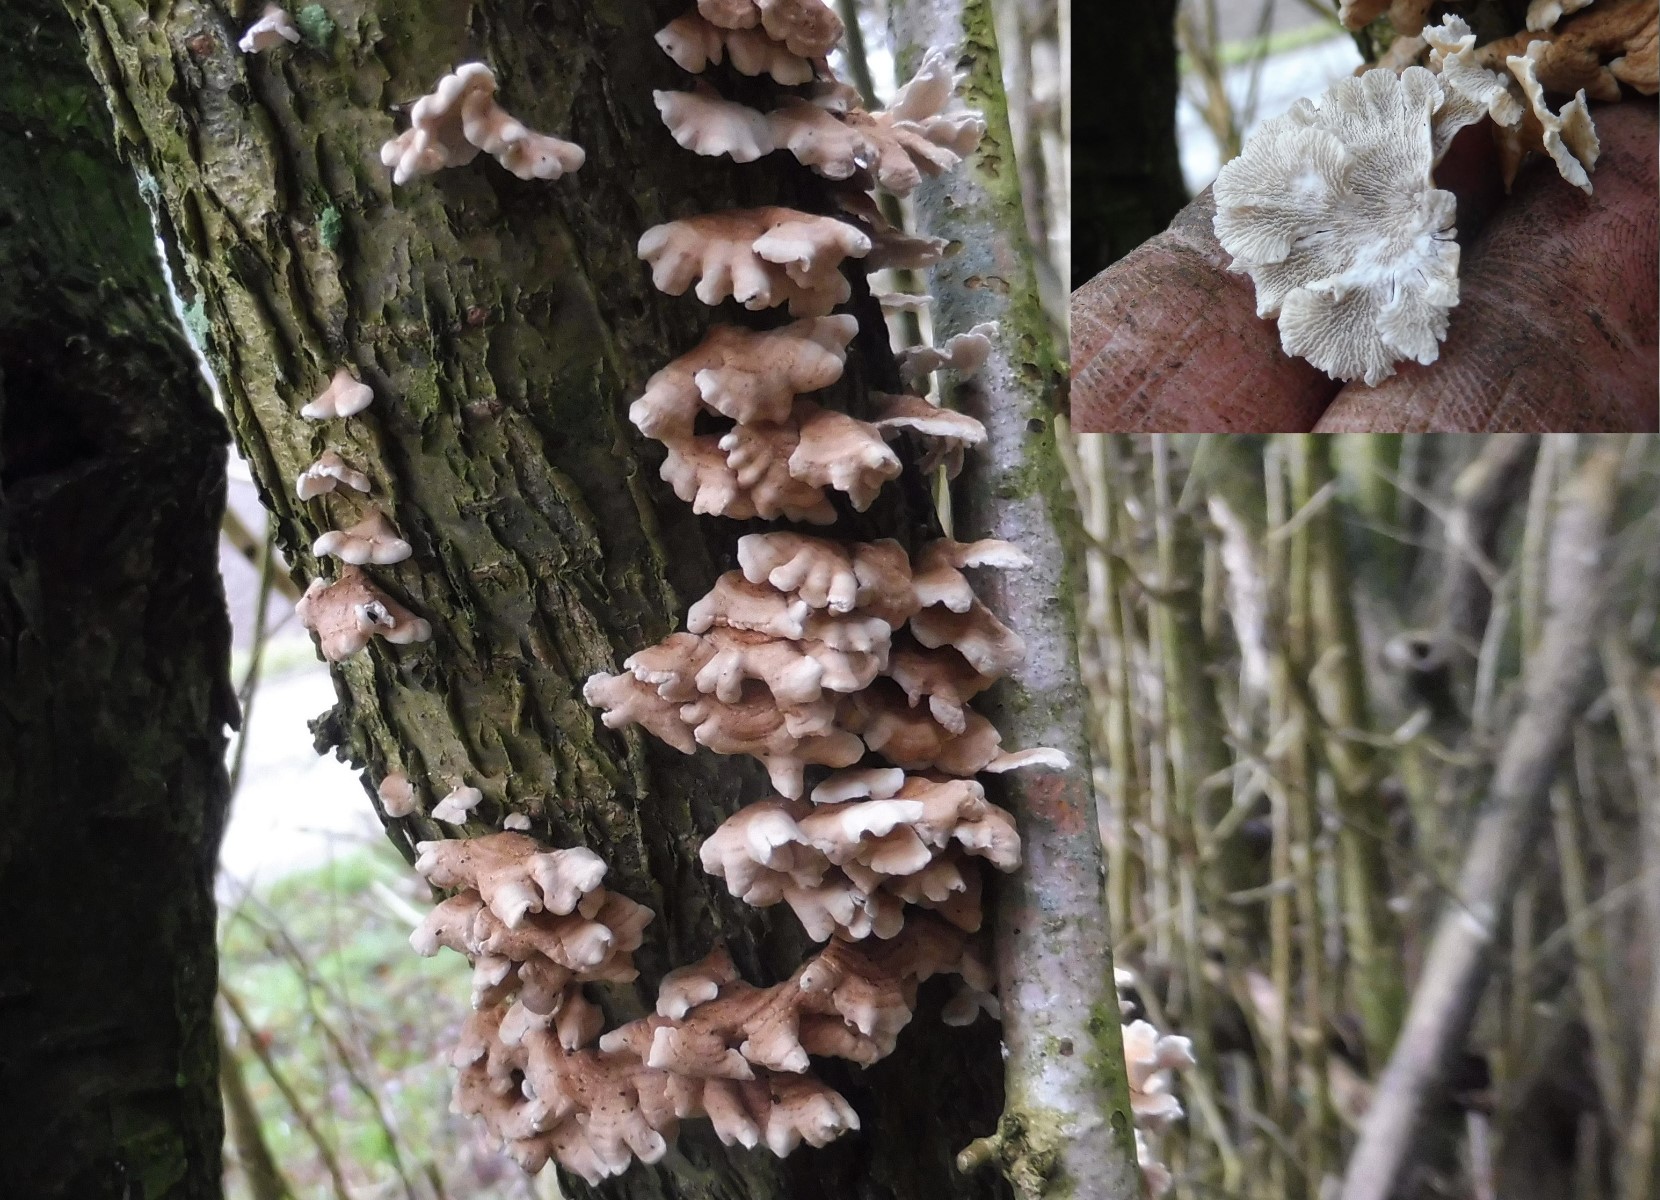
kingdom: Fungi
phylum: Basidiomycota
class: Agaricomycetes
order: Amylocorticiales
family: Amylocorticiaceae
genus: Plicaturopsis
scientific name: Plicaturopsis crispa
